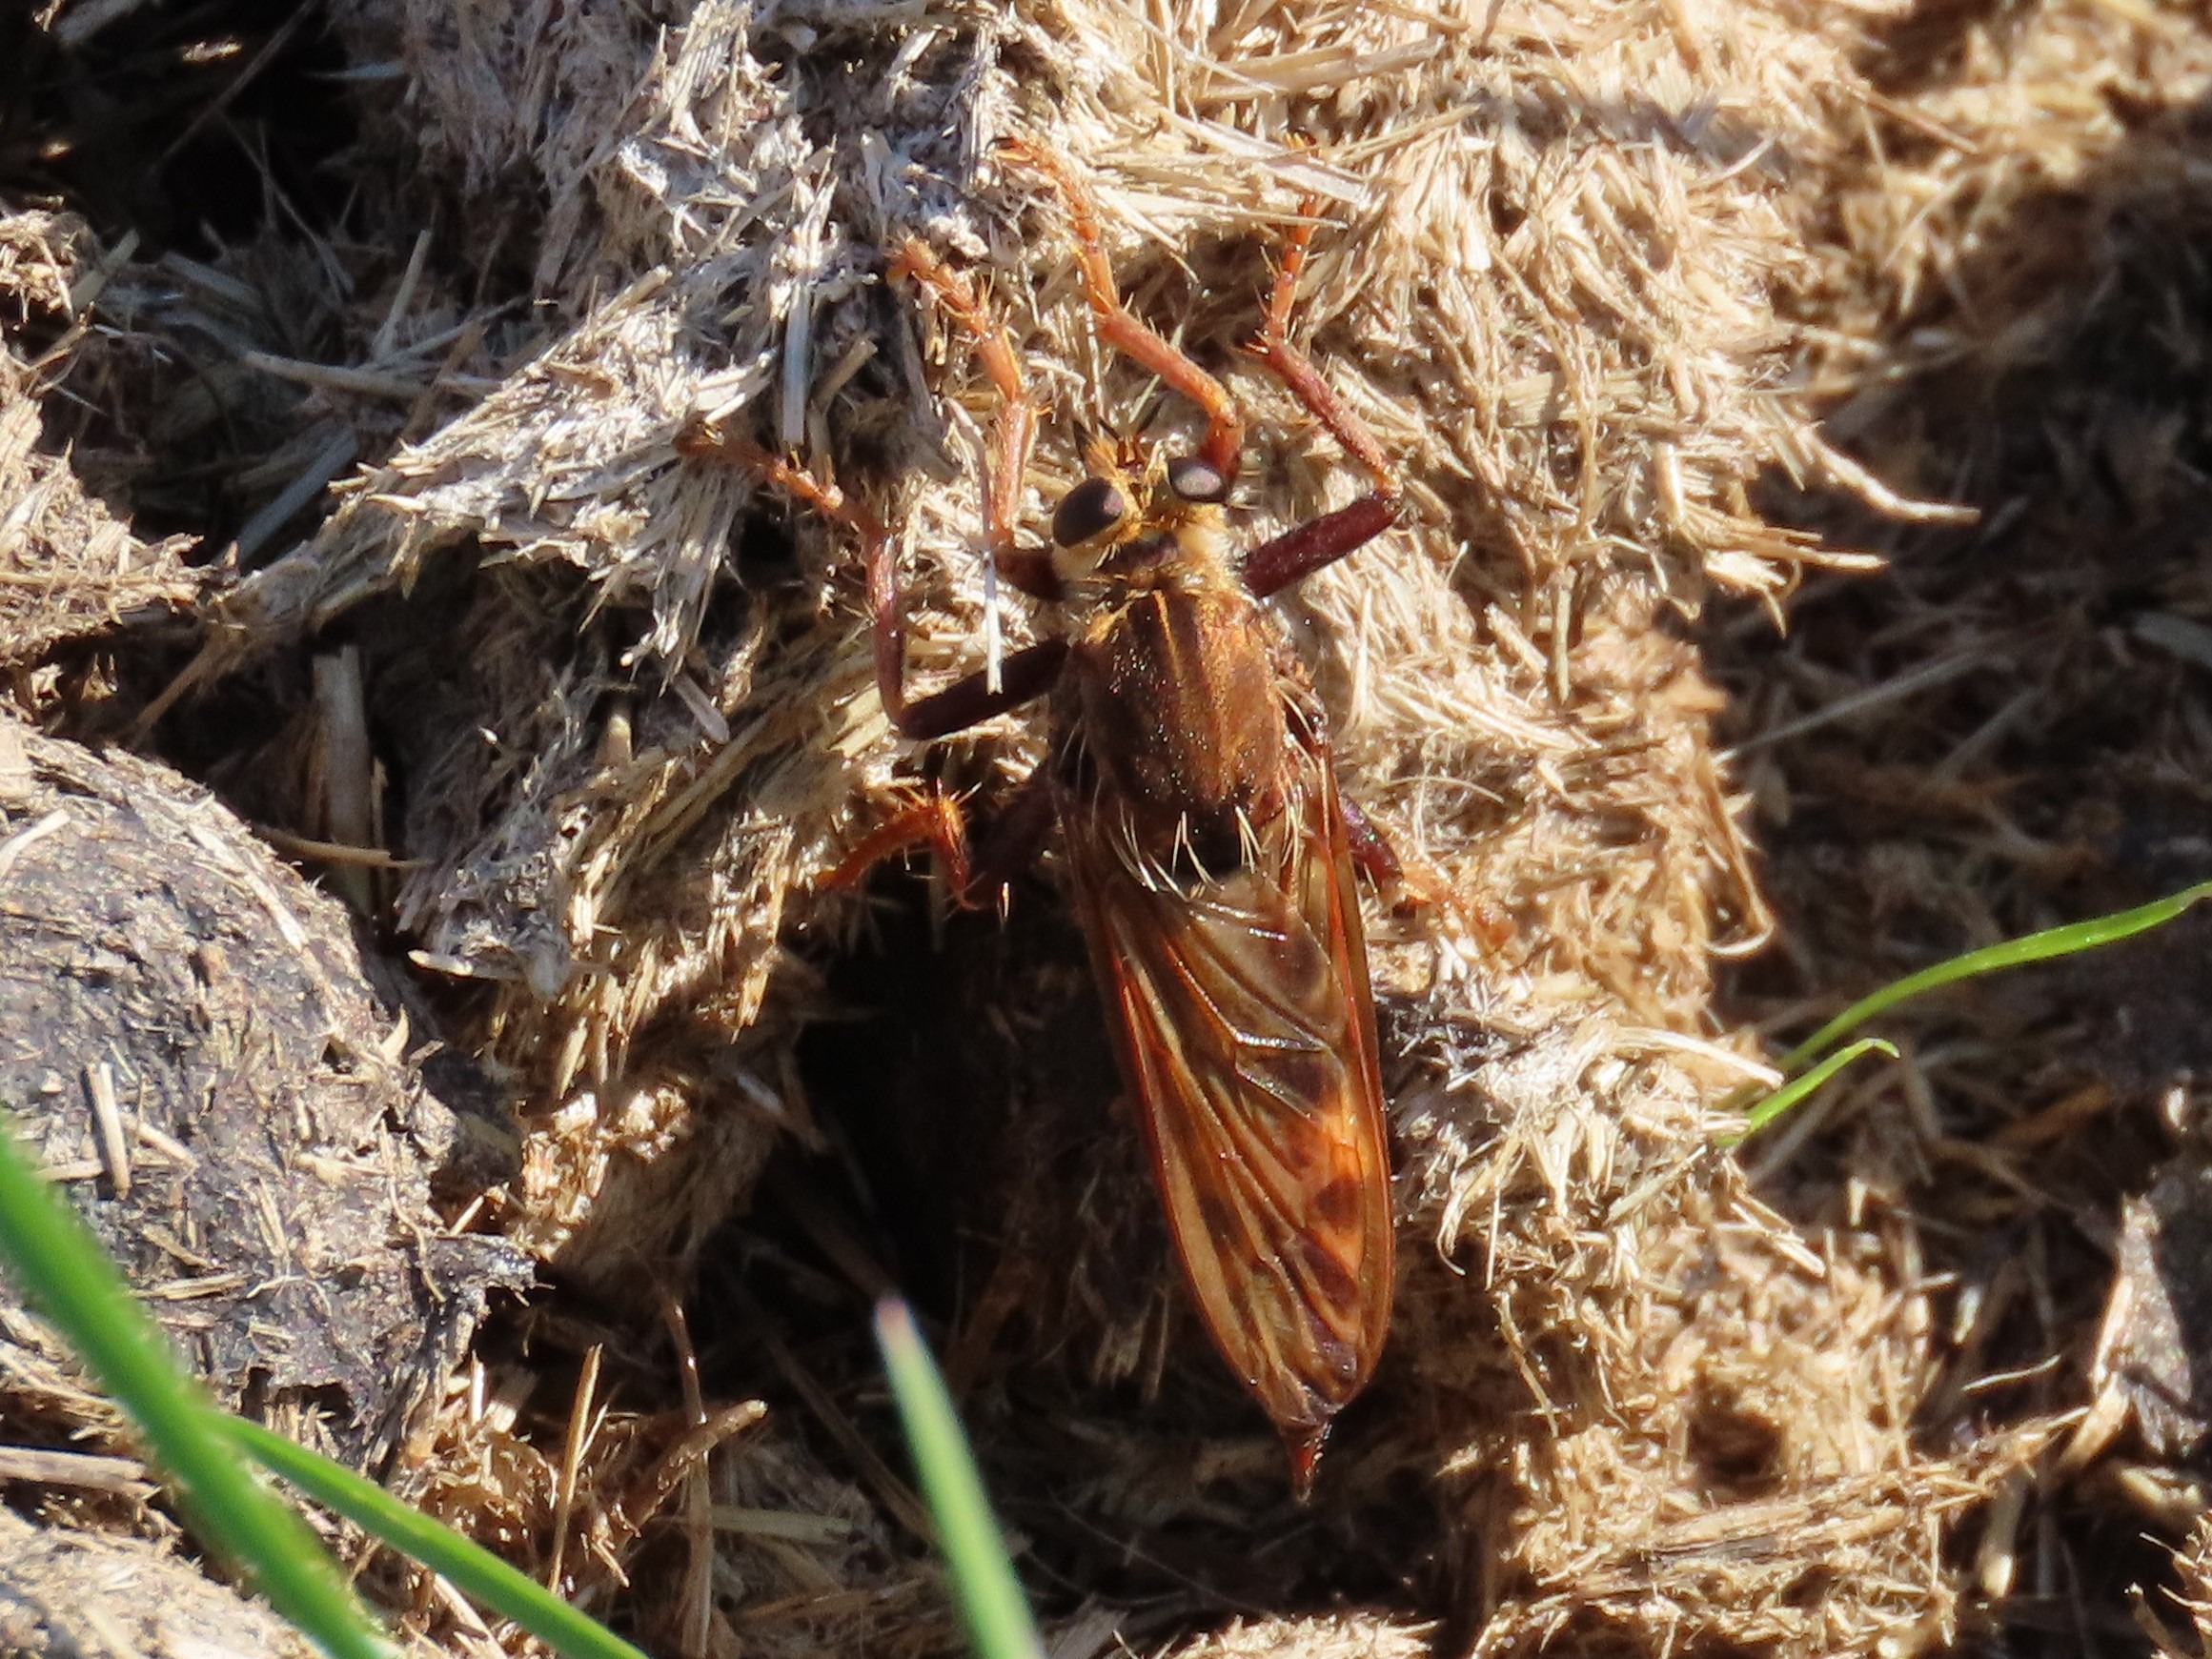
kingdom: Animalia
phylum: Arthropoda
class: Insecta
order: Diptera
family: Asilidae
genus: Asilus
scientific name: Asilus crabroniformis
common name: Stor gødningsrovflue
